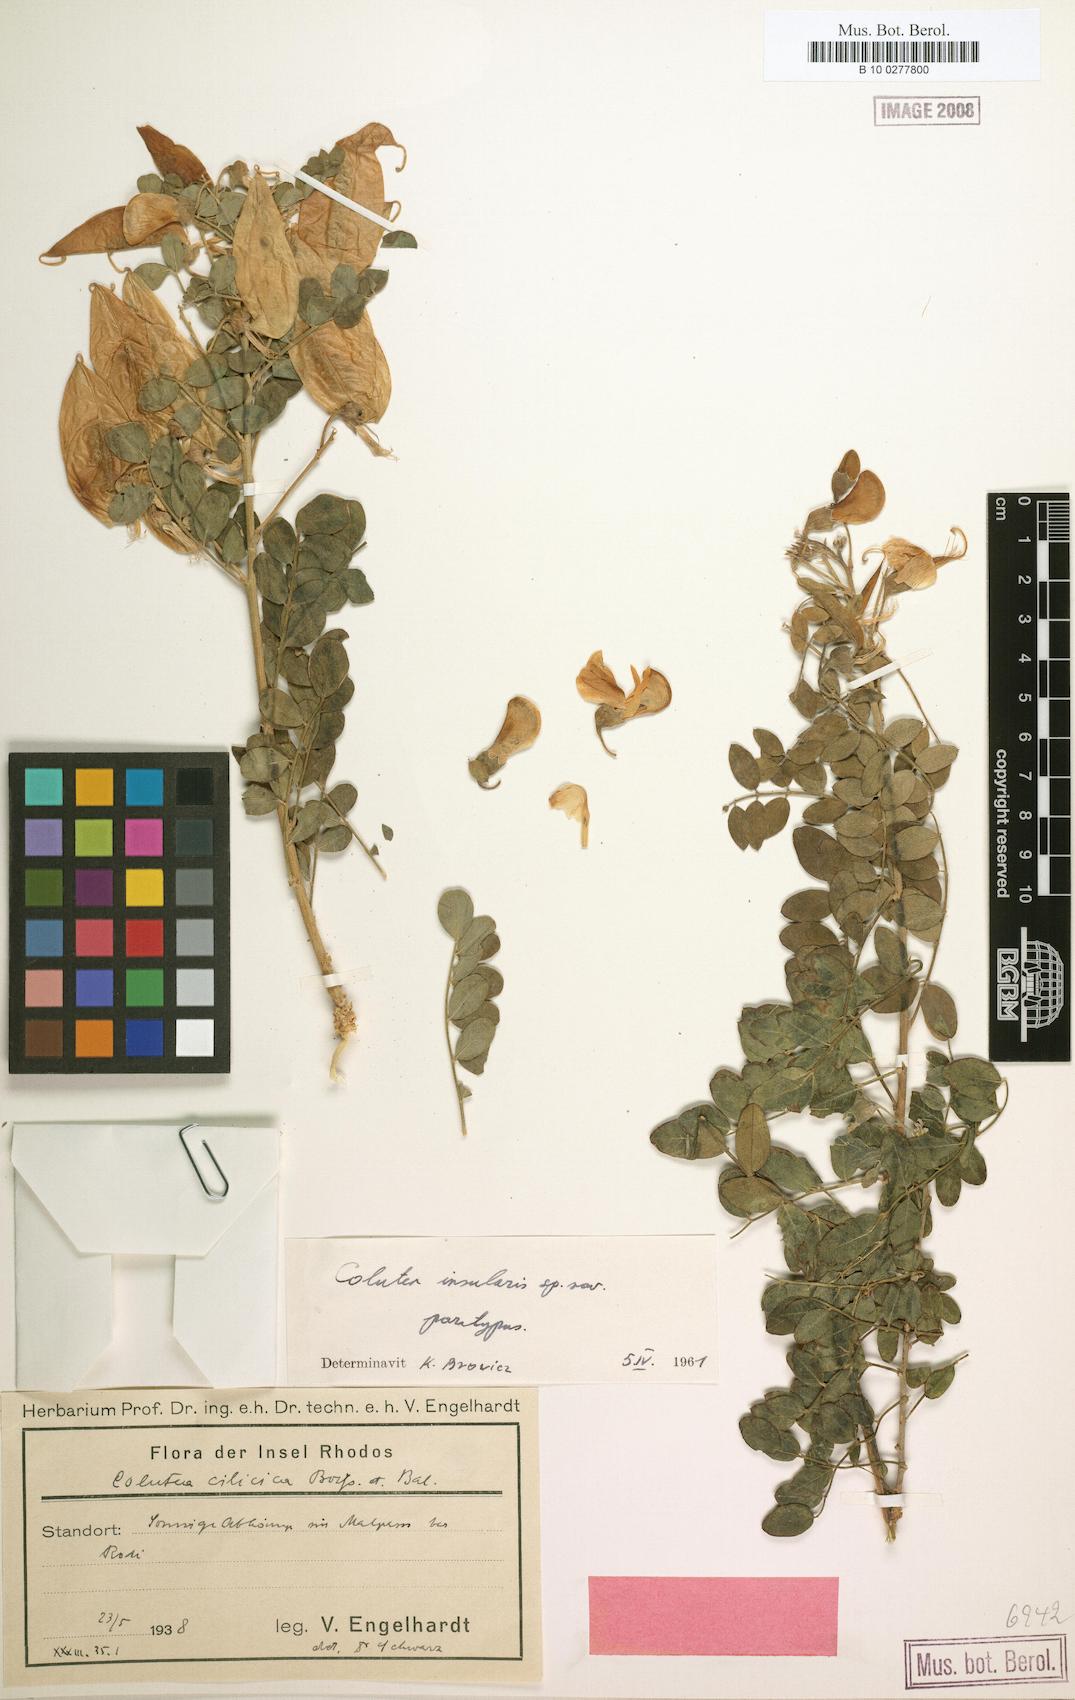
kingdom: Plantae
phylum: Tracheophyta
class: Magnoliopsida
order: Fabales
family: Fabaceae
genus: Colutea
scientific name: Colutea insularis
